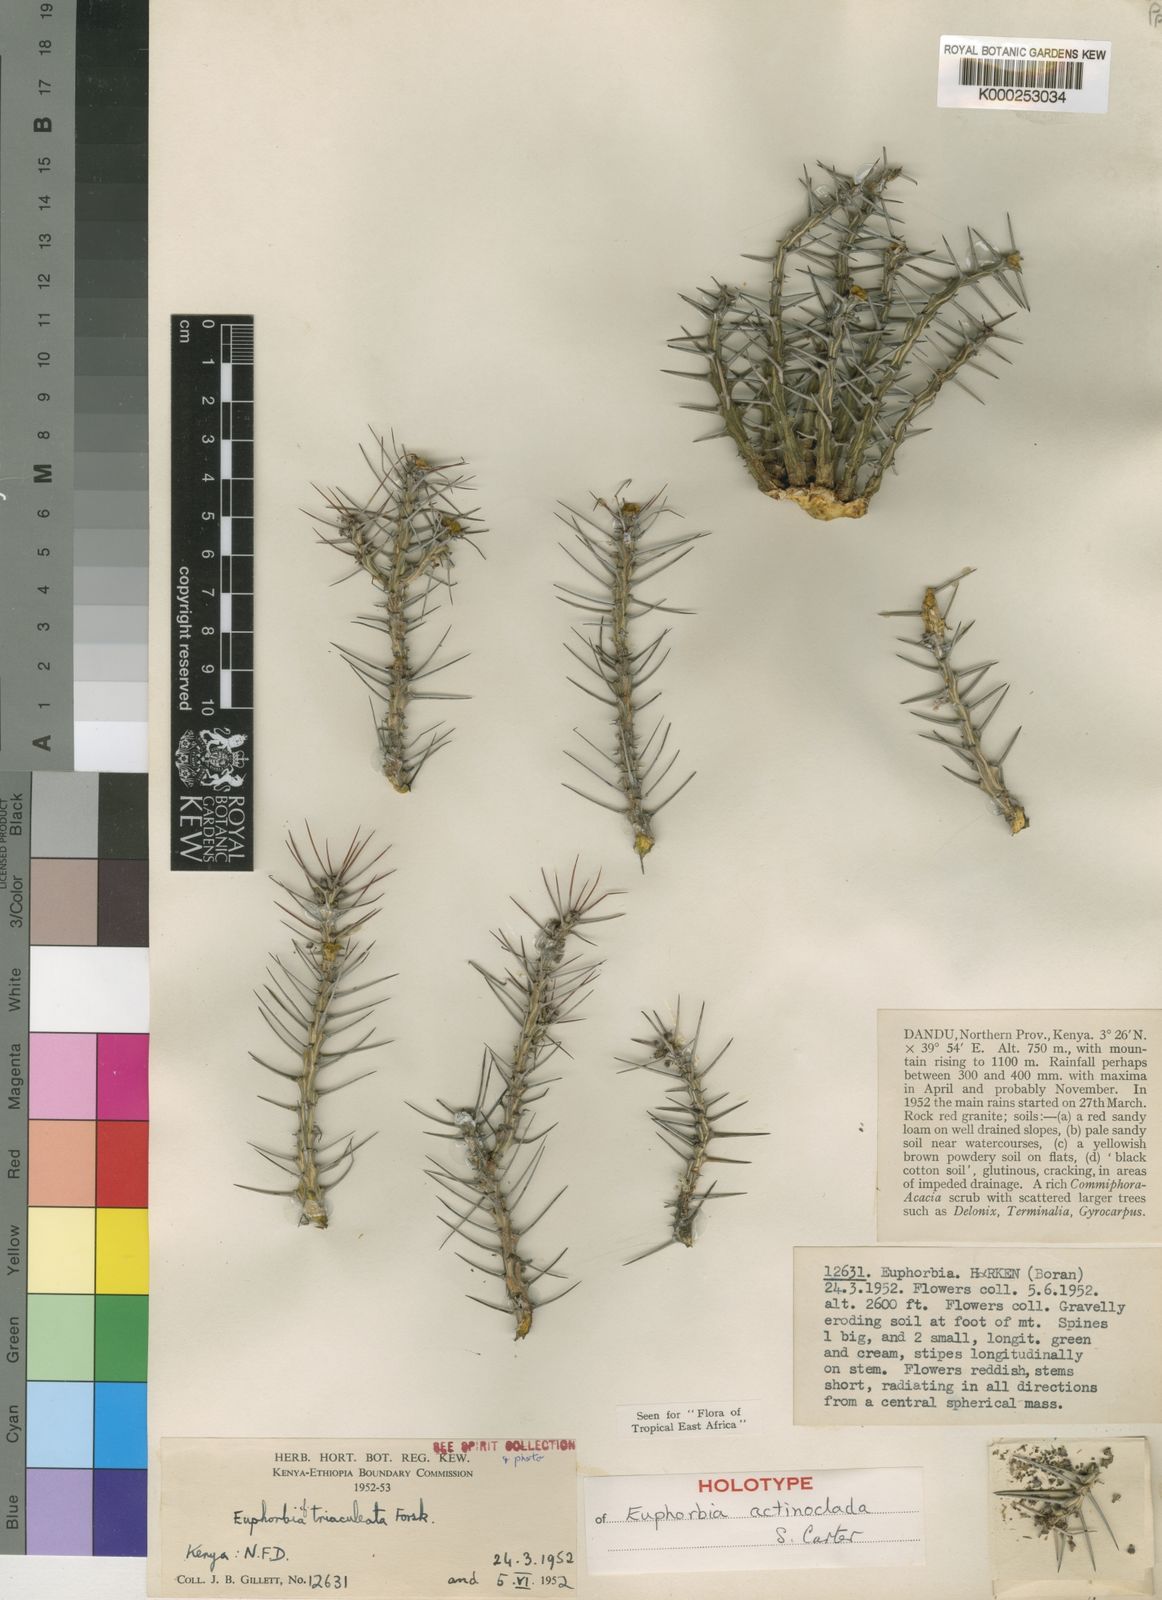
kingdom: Plantae
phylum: Tracheophyta
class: Magnoliopsida
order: Malpighiales
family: Euphorbiaceae
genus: Euphorbia
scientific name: Euphorbia actinoclada
